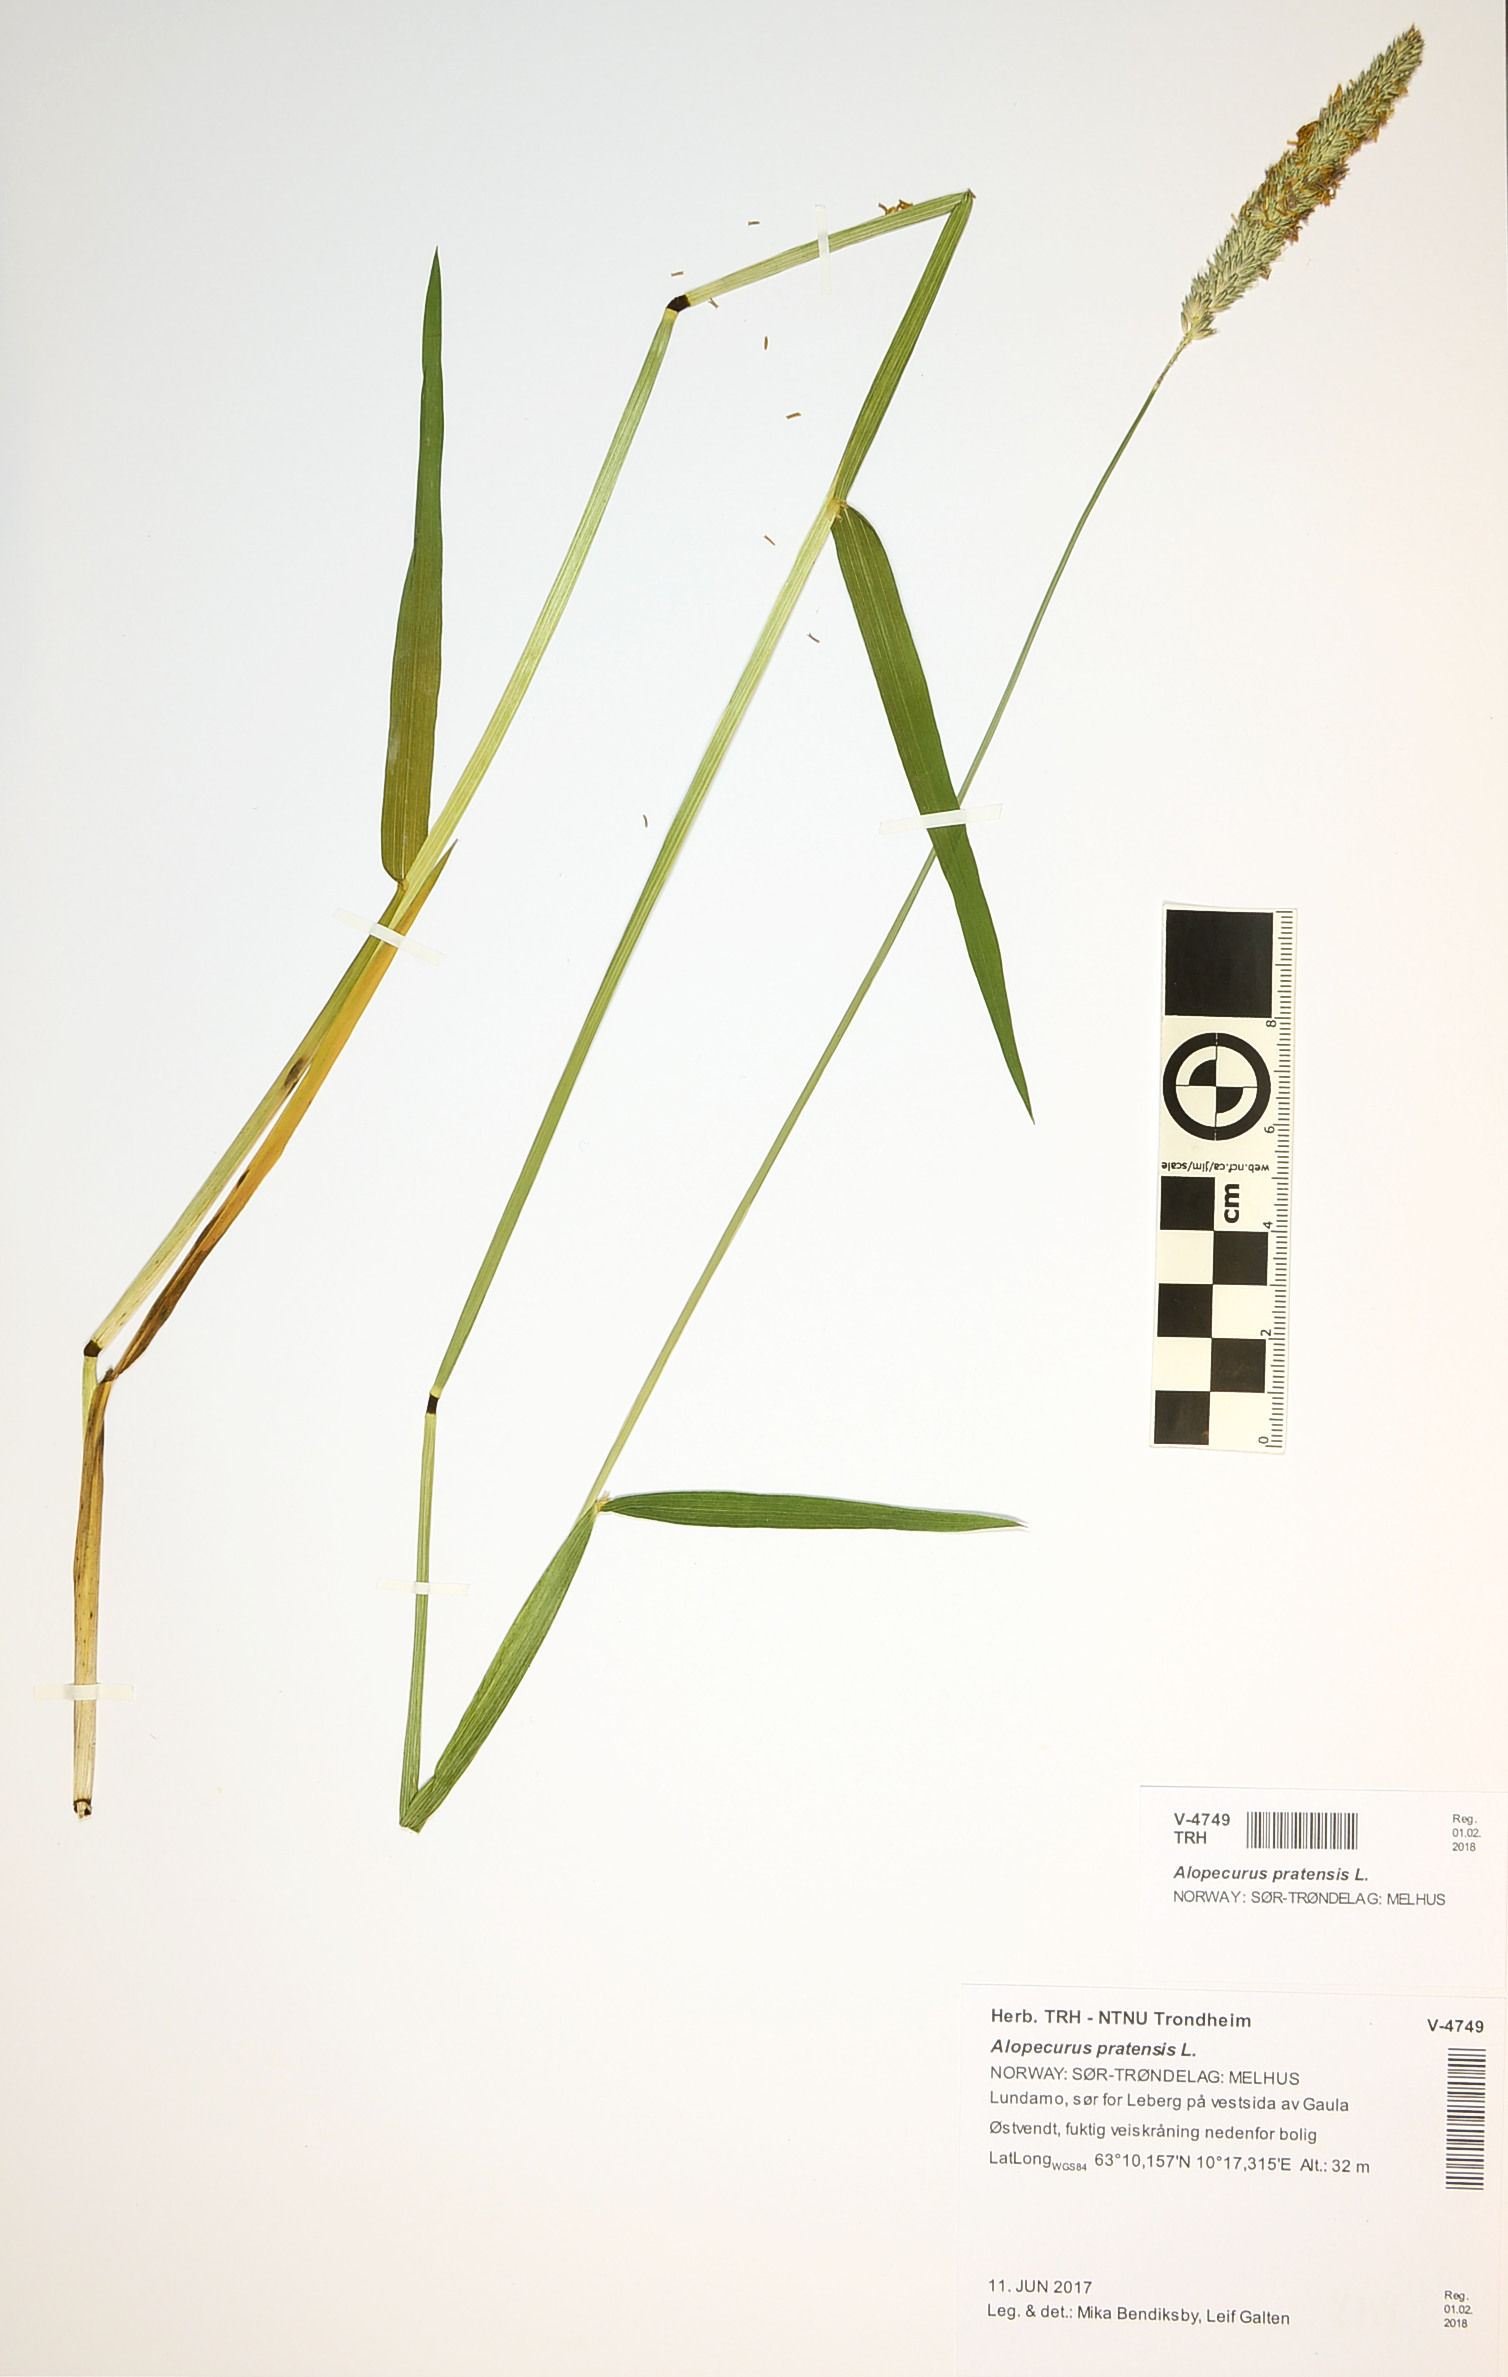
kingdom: Plantae
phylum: Tracheophyta
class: Liliopsida
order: Poales
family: Poaceae
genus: Alopecurus
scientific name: Alopecurus pratensis
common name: Meadow foxtail
